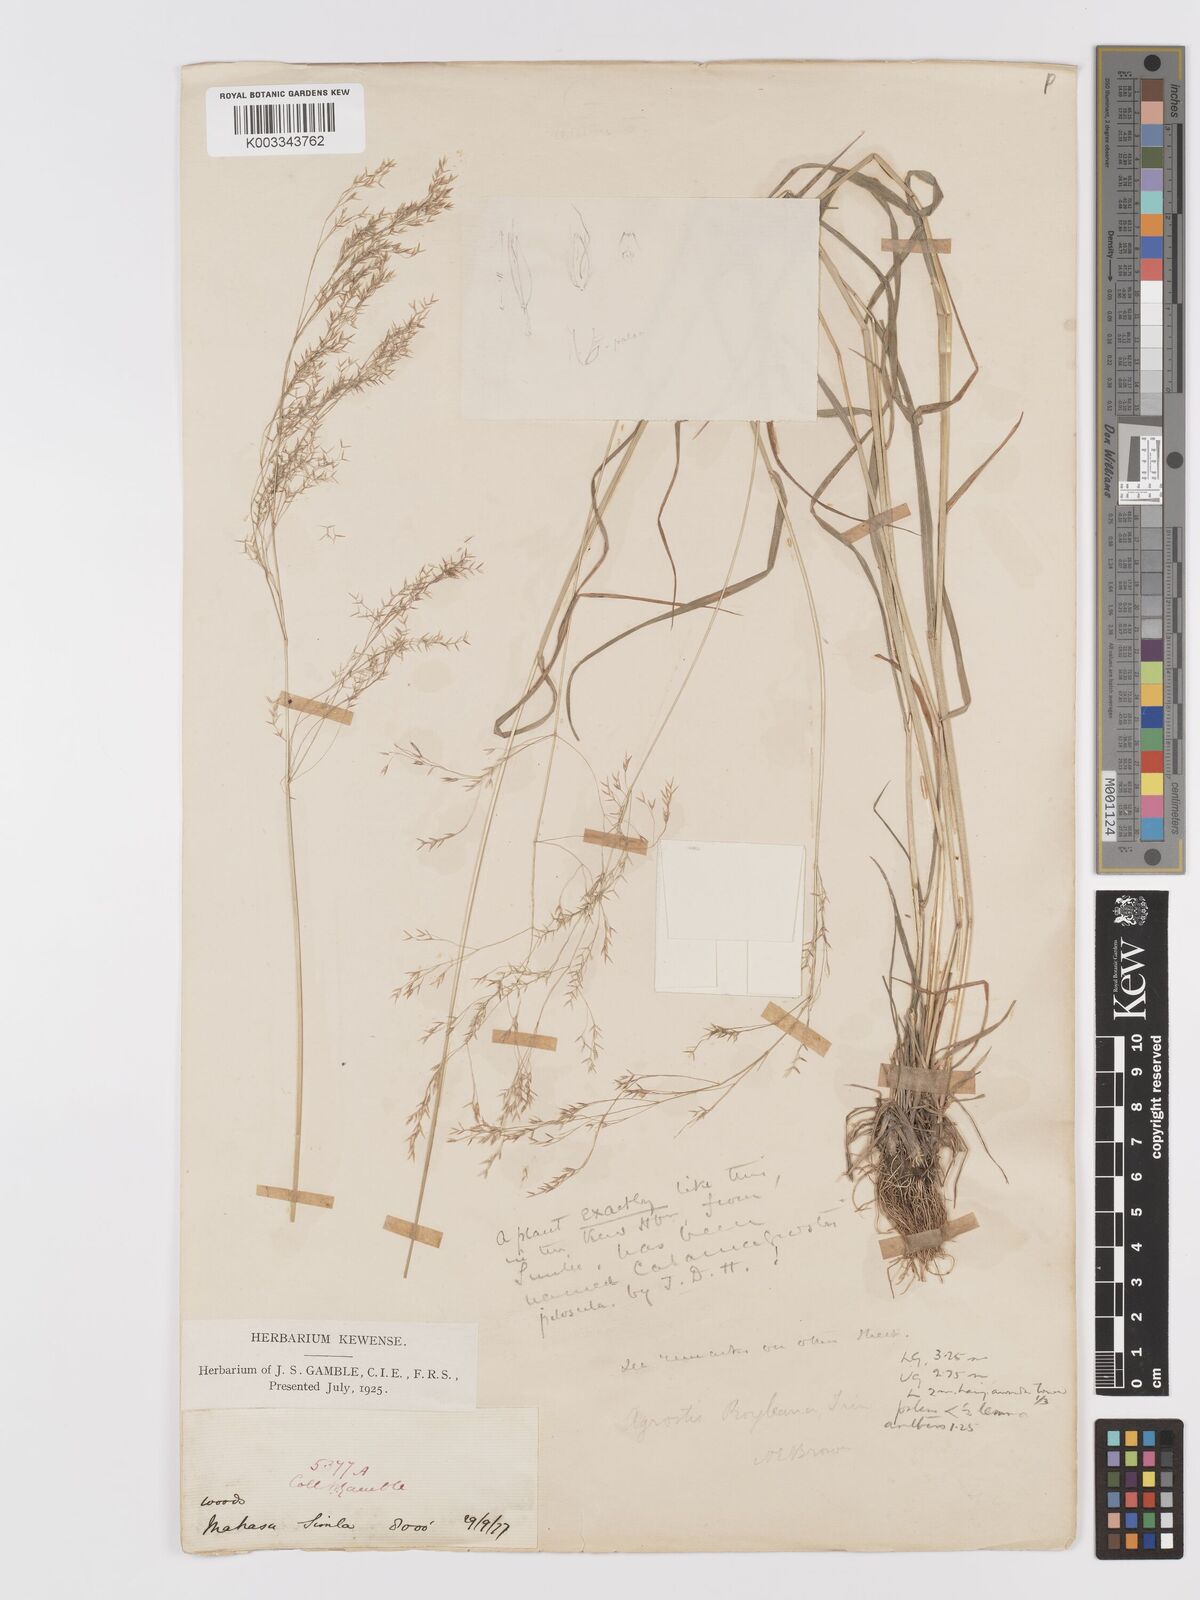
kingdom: Plantae
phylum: Tracheophyta
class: Liliopsida
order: Poales
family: Poaceae
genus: Agrostis
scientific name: Agrostis pilosula
